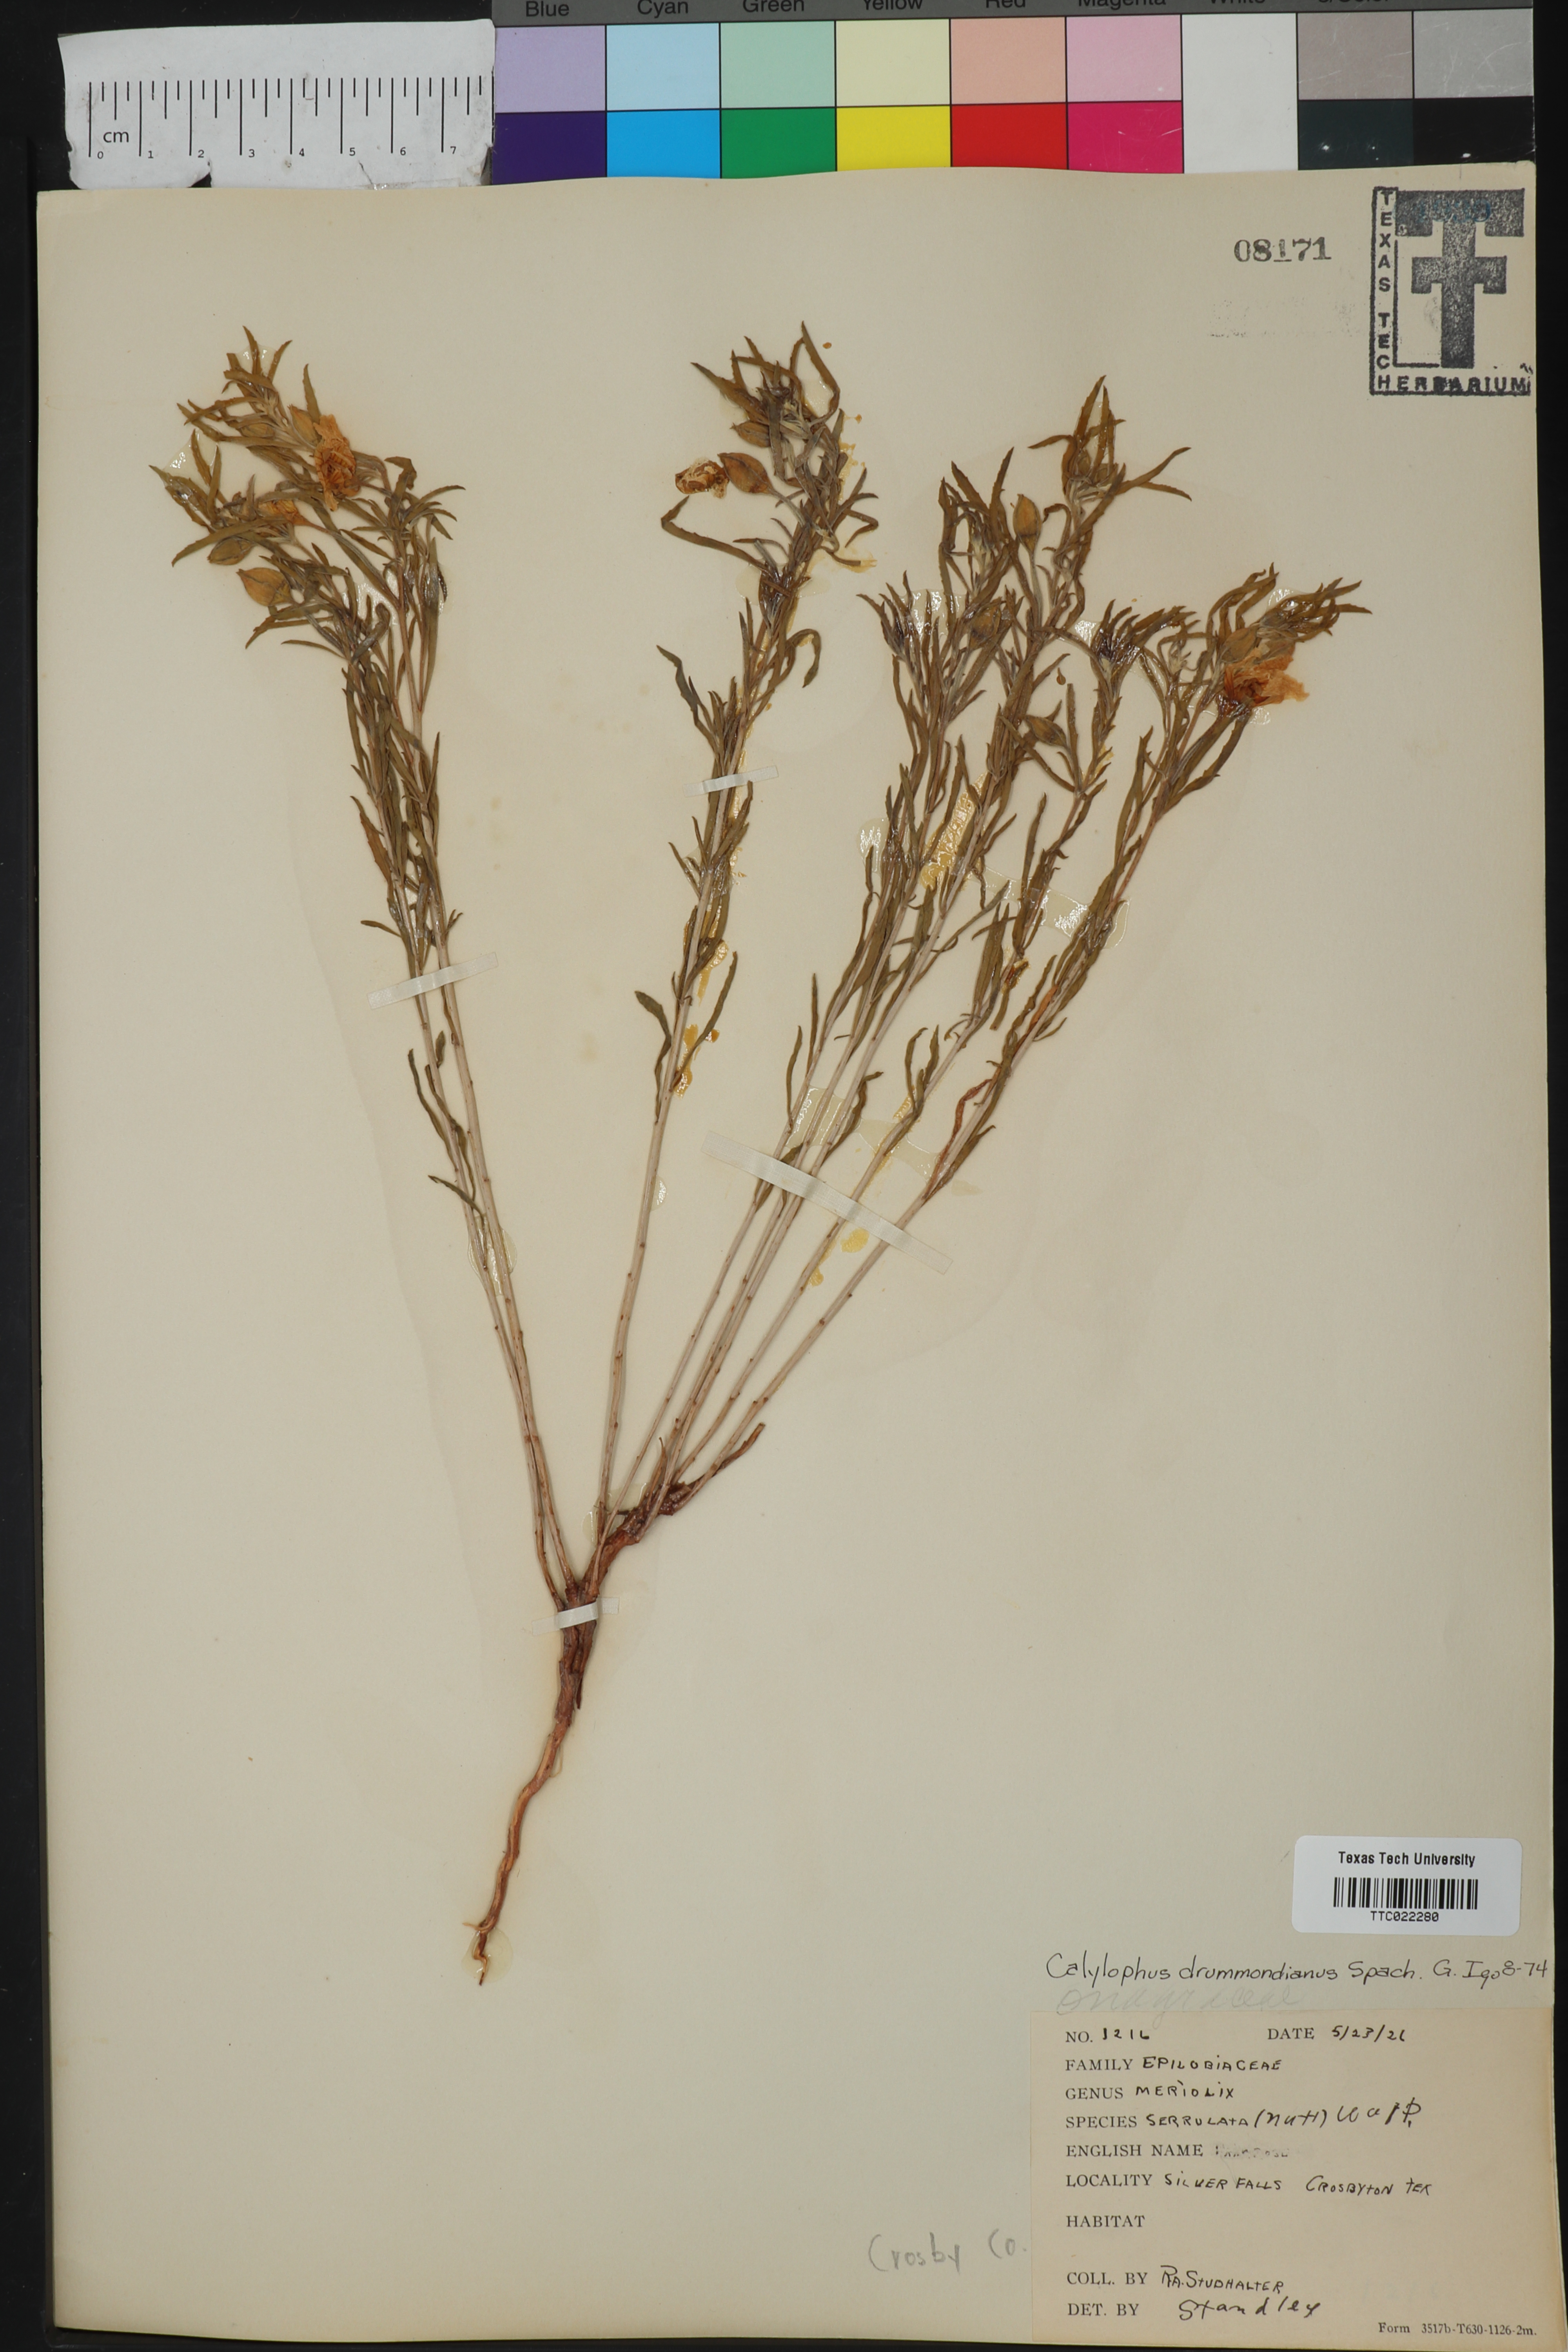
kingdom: Plantae
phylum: Tracheophyta
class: Magnoliopsida
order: Myrtales
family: Onagraceae
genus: Oenothera
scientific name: Oenothera serrulata
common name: Half-shrub calylophus
